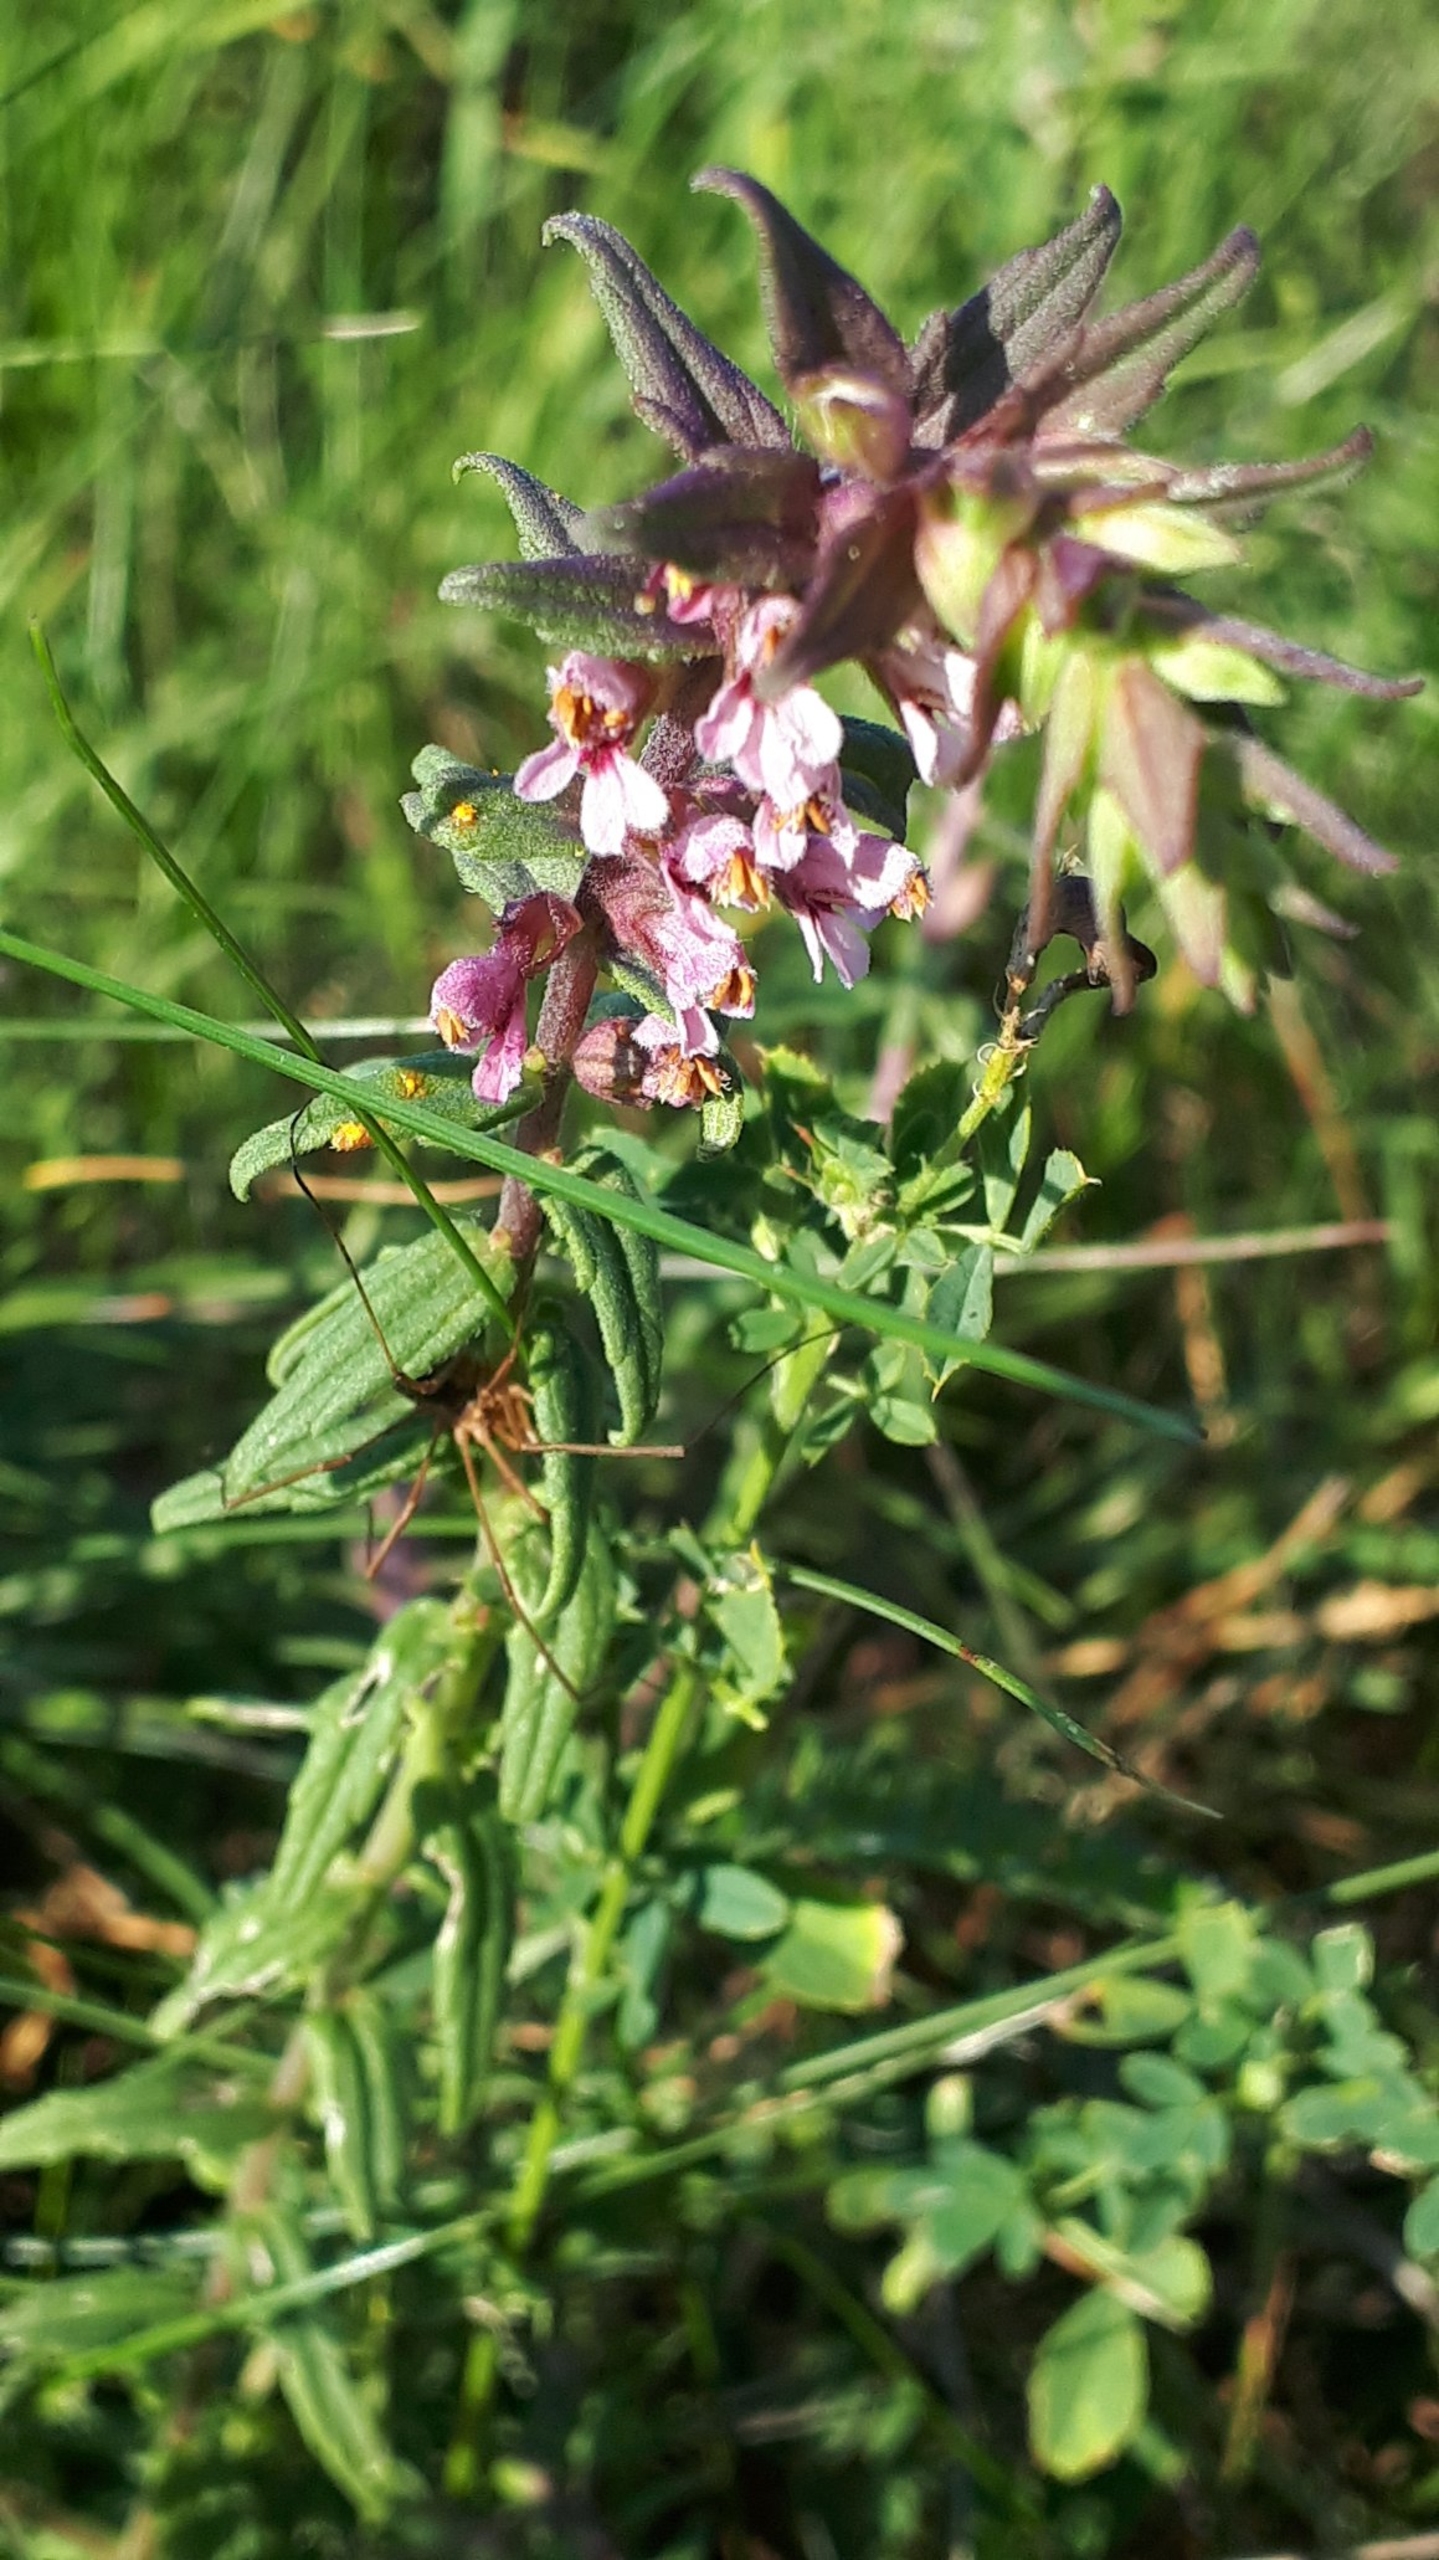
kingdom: Plantae
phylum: Tracheophyta
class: Magnoliopsida
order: Lamiales
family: Orobanchaceae
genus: Odontites
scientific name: Odontites vulgaris
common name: Høst-rødtop
